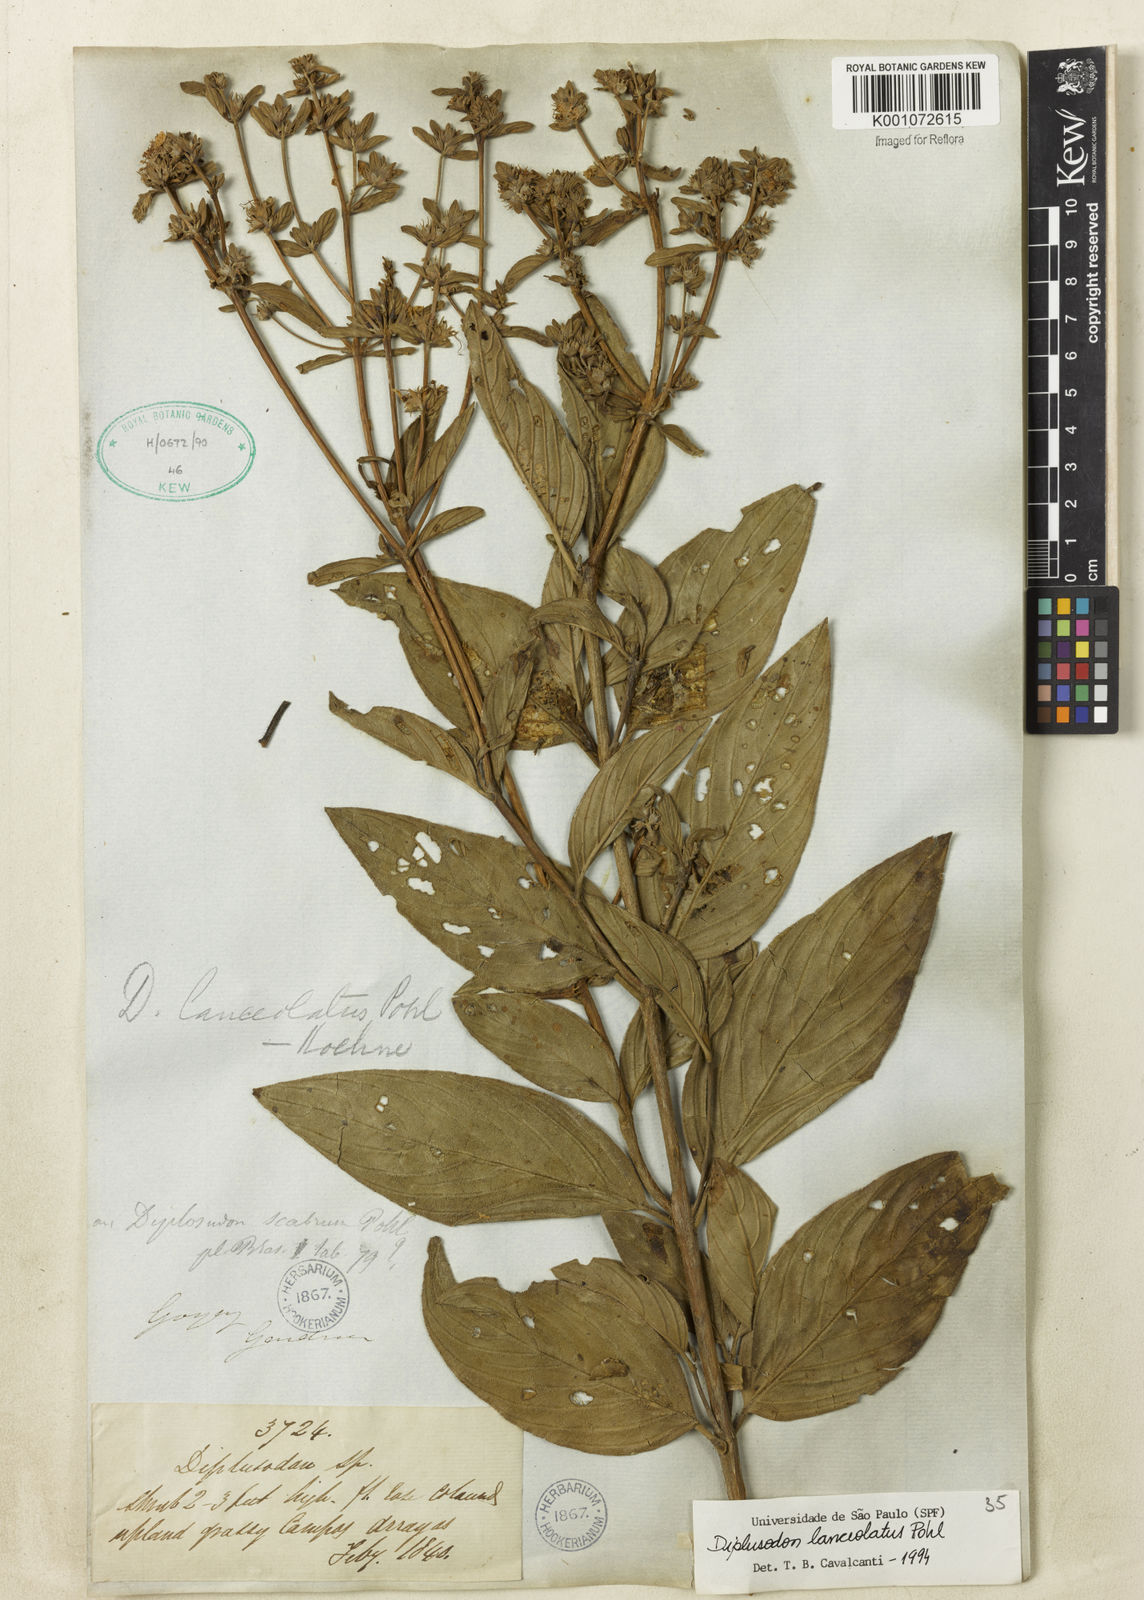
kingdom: Plantae
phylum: Tracheophyta
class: Magnoliopsida
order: Myrtales
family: Lythraceae
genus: Diplusodon
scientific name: Diplusodon lanceolatus
